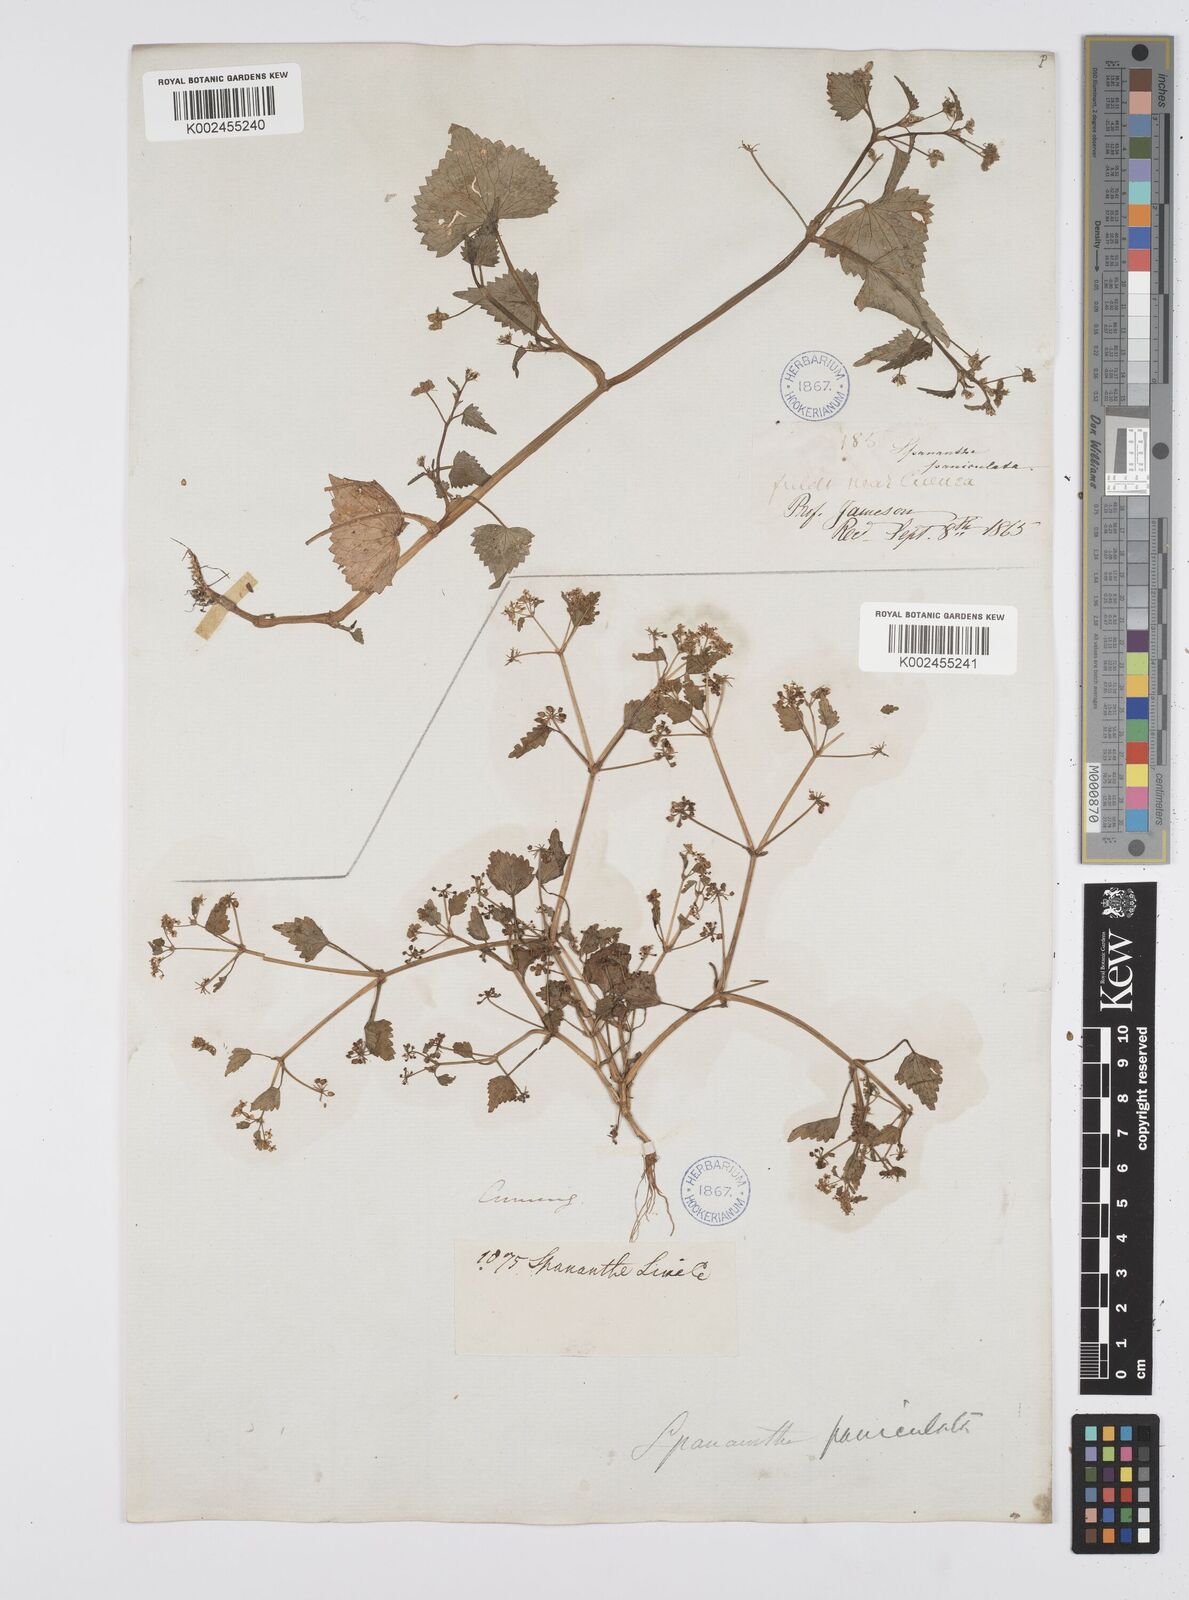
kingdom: Plantae
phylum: Tracheophyta
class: Magnoliopsida
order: Apiales
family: Apiaceae
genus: Azorella
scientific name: Azorella
